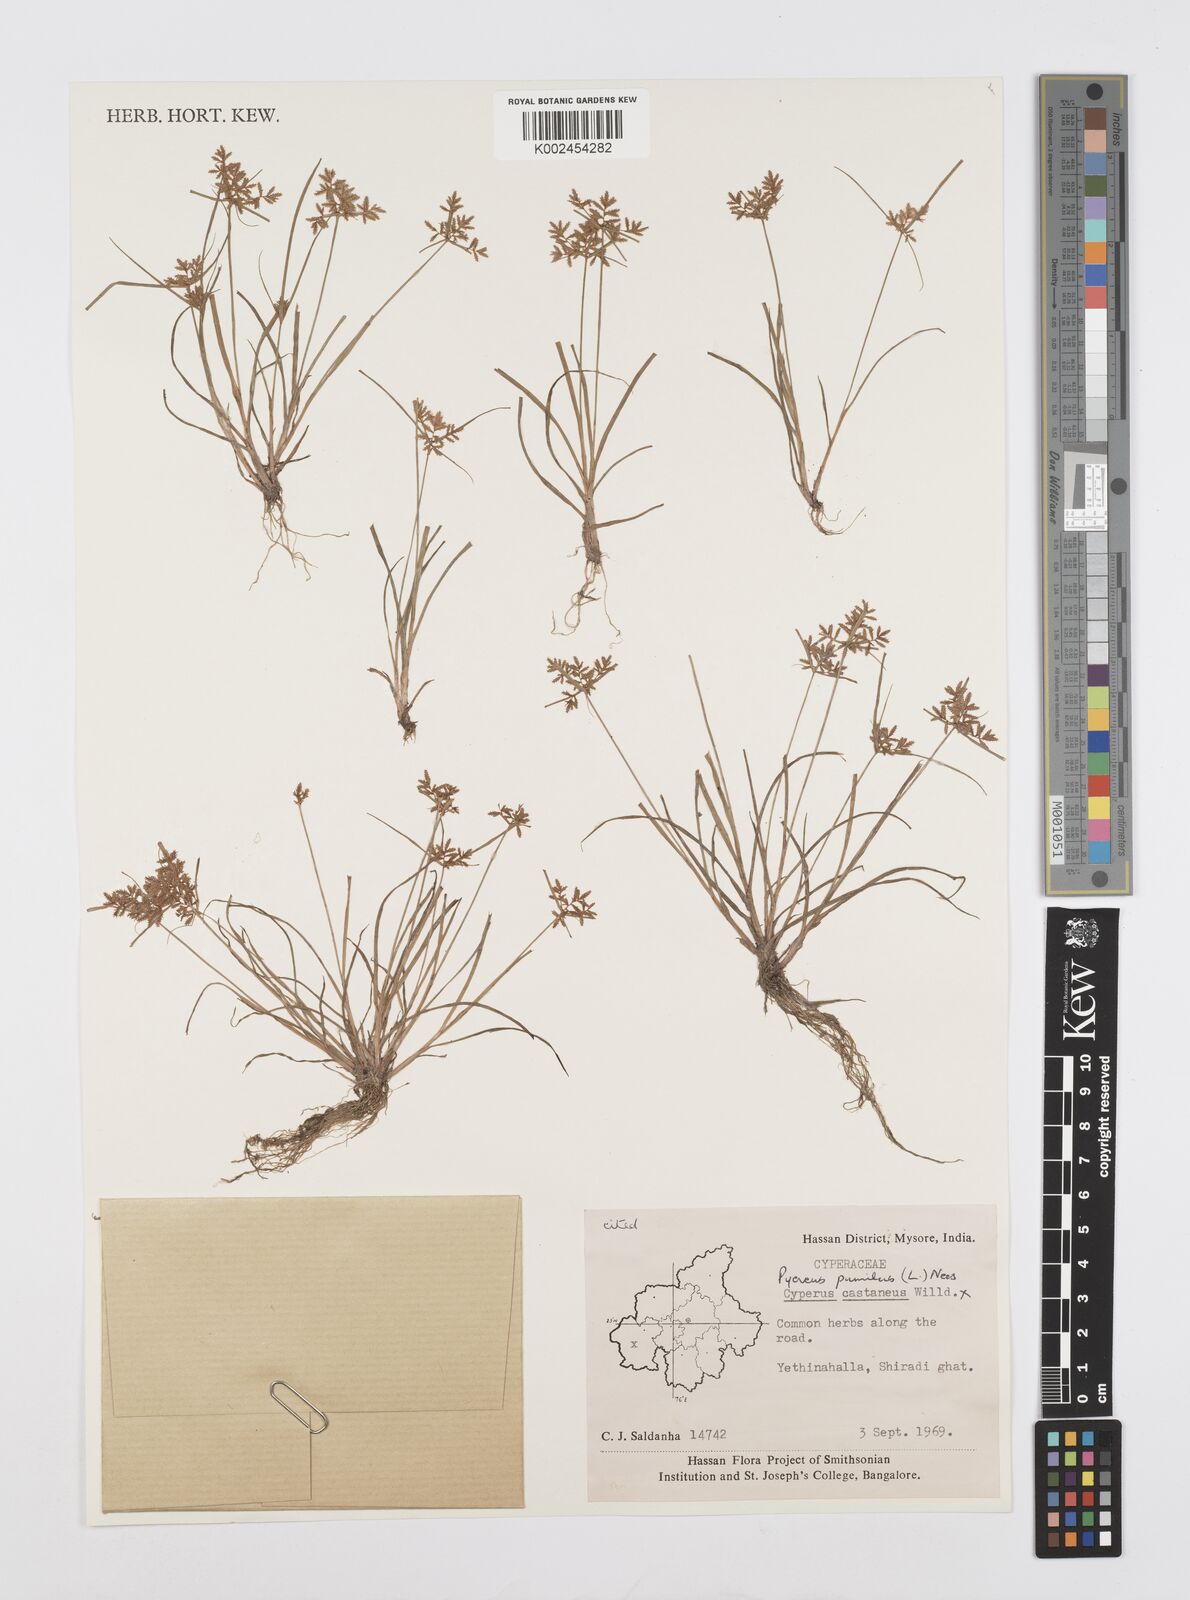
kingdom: Plantae
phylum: Tracheophyta
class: Liliopsida
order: Poales
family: Cyperaceae
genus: Cyperus
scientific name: Cyperus pumilus
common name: Low flatsedge
